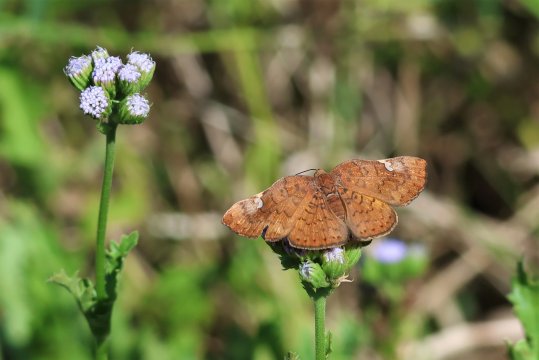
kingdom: Animalia
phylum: Arthropoda
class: Insecta
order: Lepidoptera
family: Lycaenidae
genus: Emesis
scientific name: Emesis emesia
